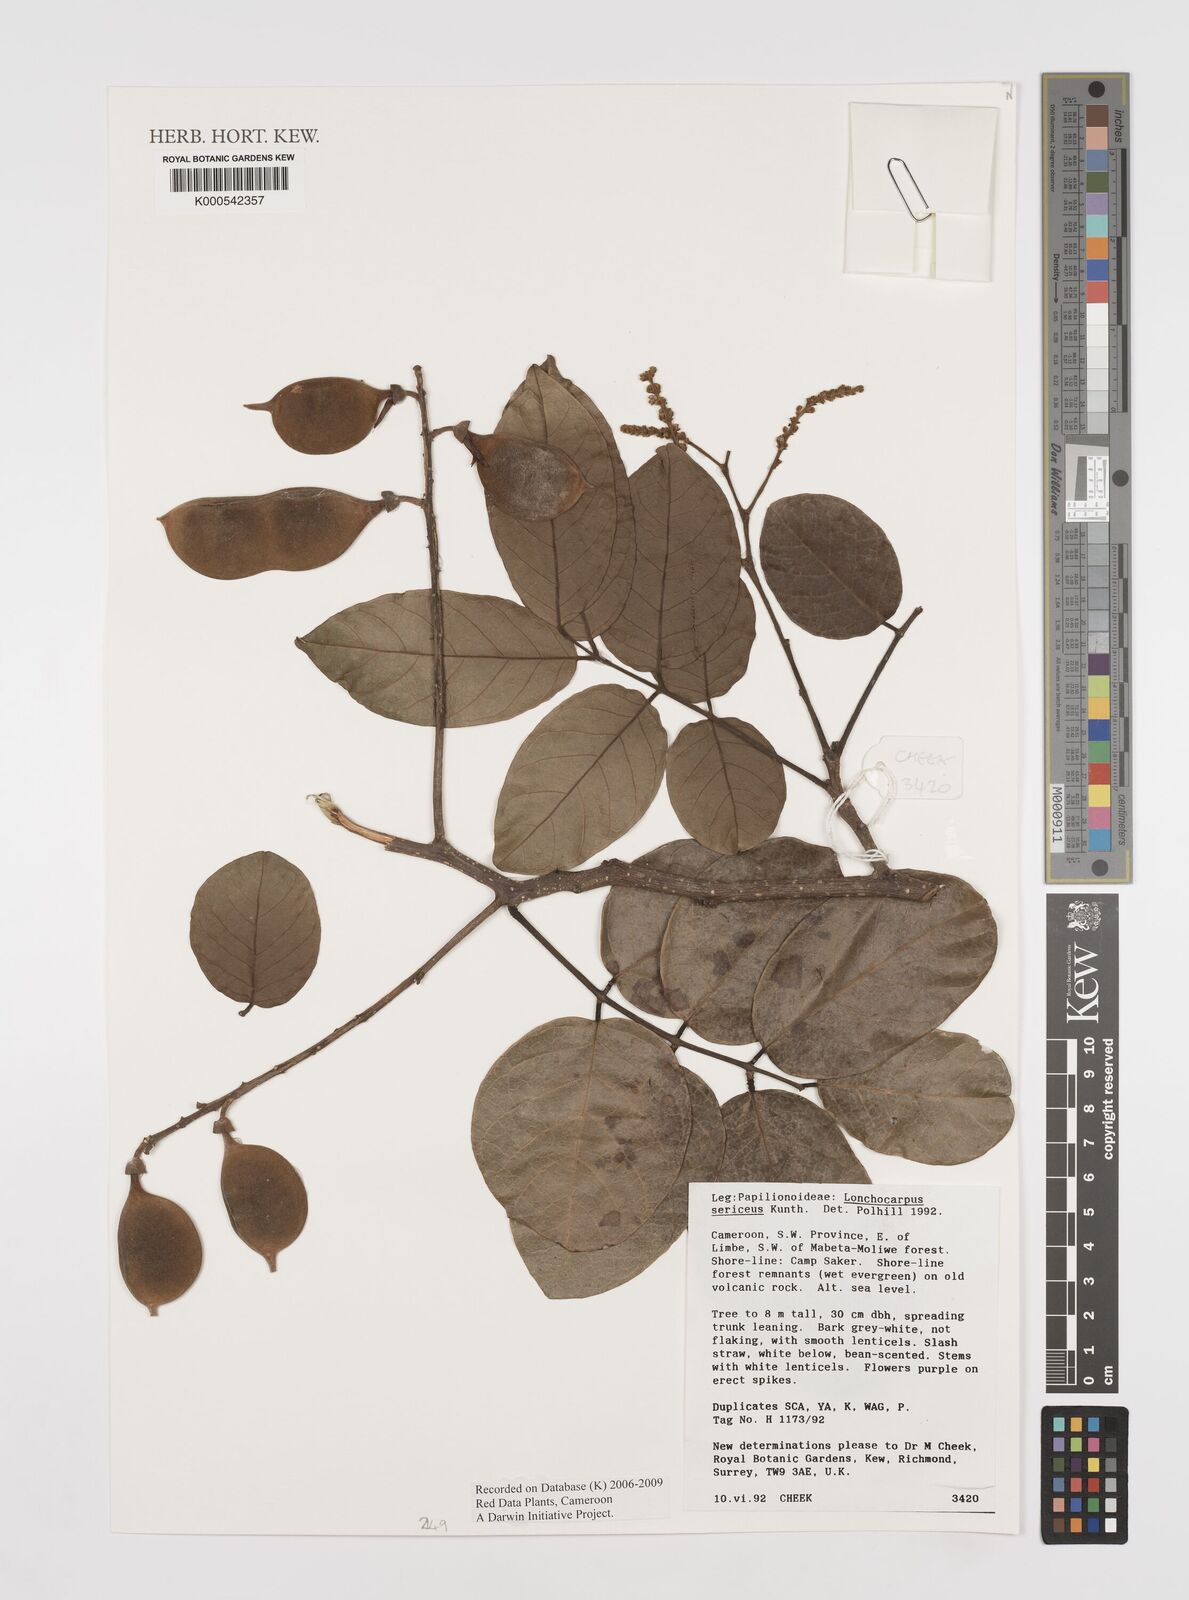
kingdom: Plantae
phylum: Tracheophyta
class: Magnoliopsida
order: Fabales
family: Fabaceae
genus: Lonchocarpus
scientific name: Lonchocarpus
